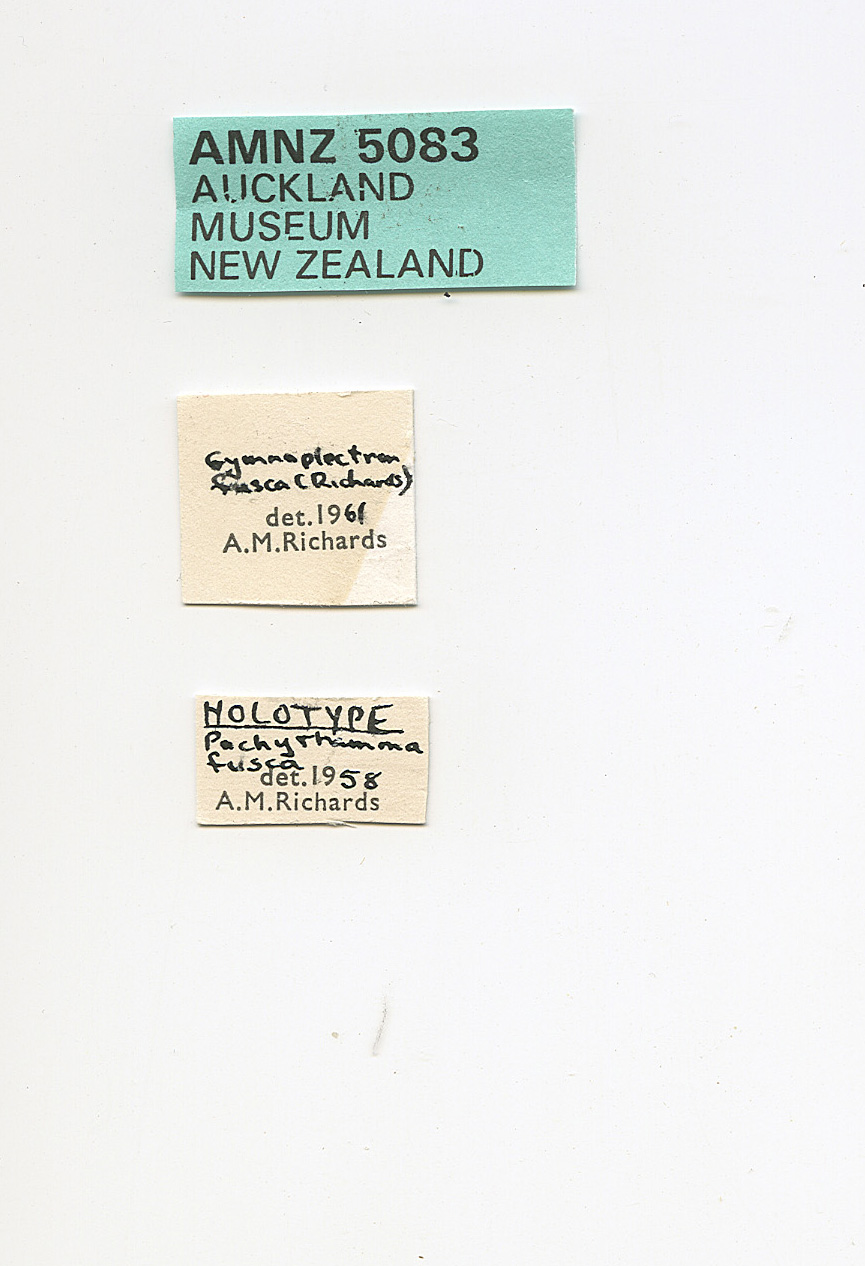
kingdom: Animalia
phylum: Arthropoda
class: Insecta
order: Orthoptera
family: Rhaphidophoridae
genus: Pachyrhamma
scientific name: Pachyrhamma fusca
